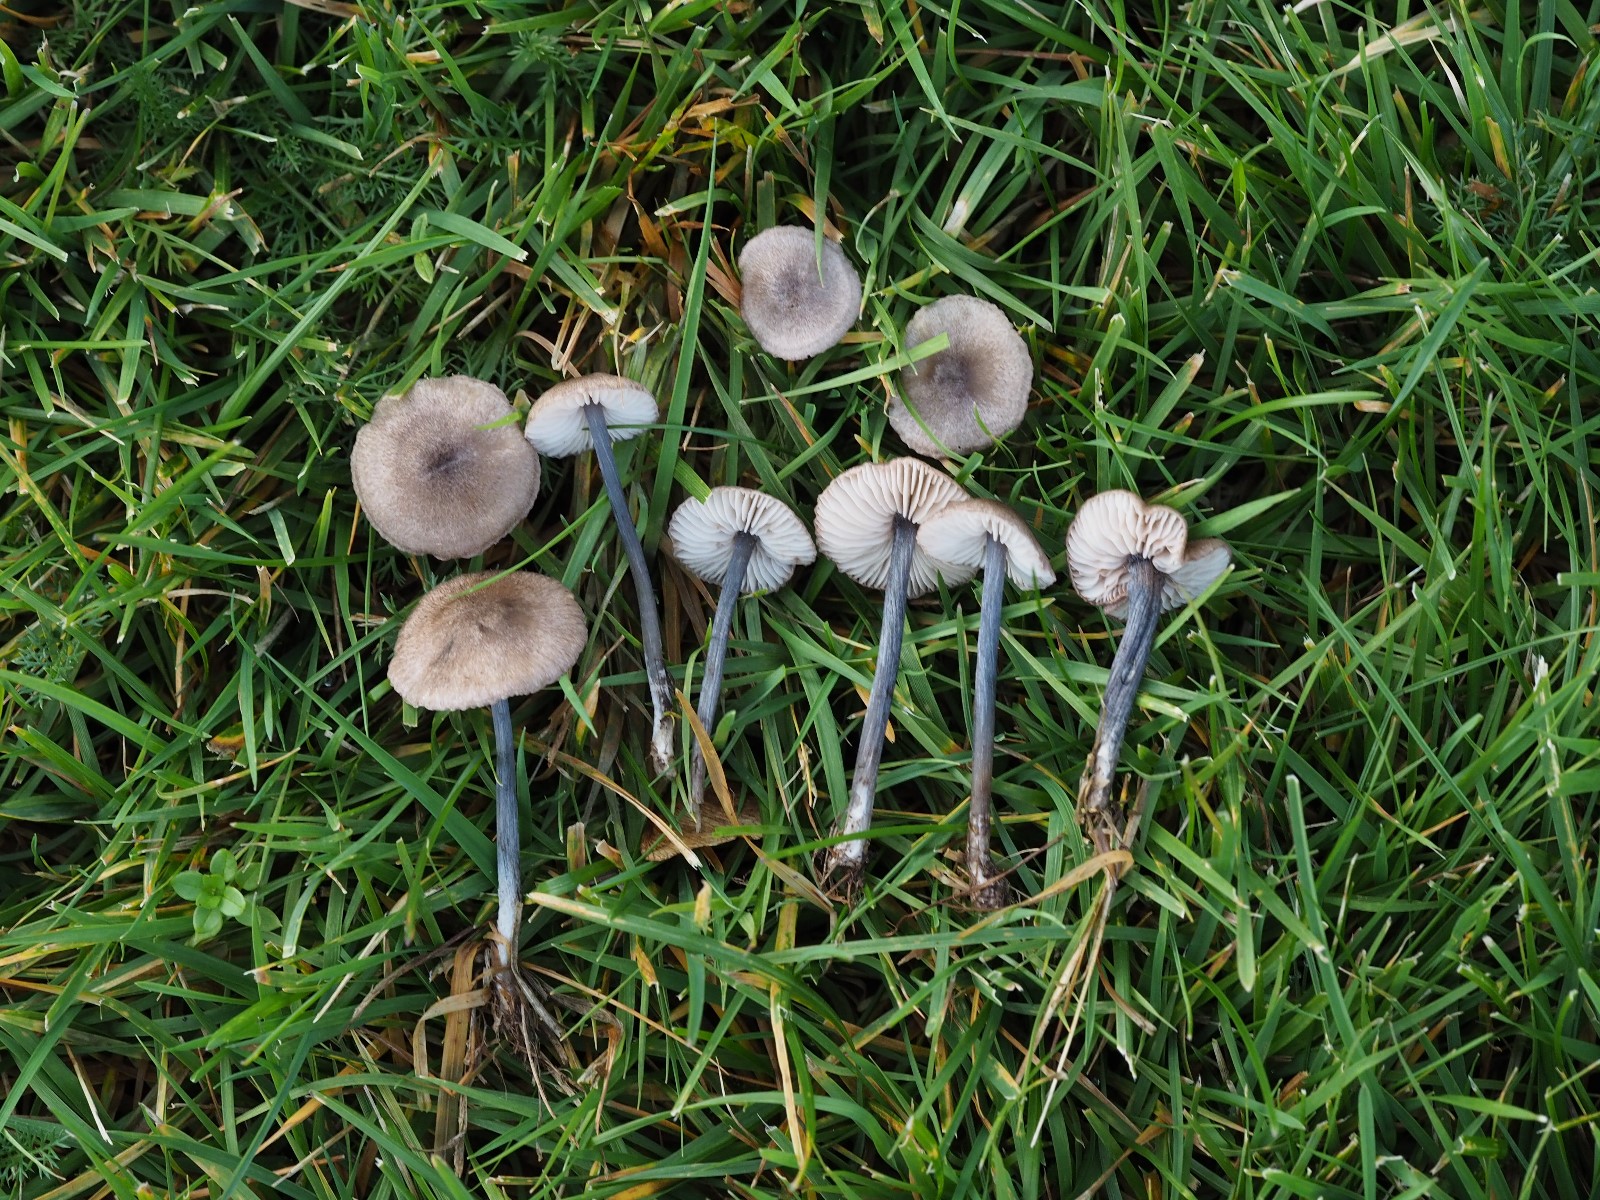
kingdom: Fungi
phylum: Basidiomycota
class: Agaricomycetes
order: Agaricales
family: Entolomataceae
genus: Entoloma
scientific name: Entoloma
